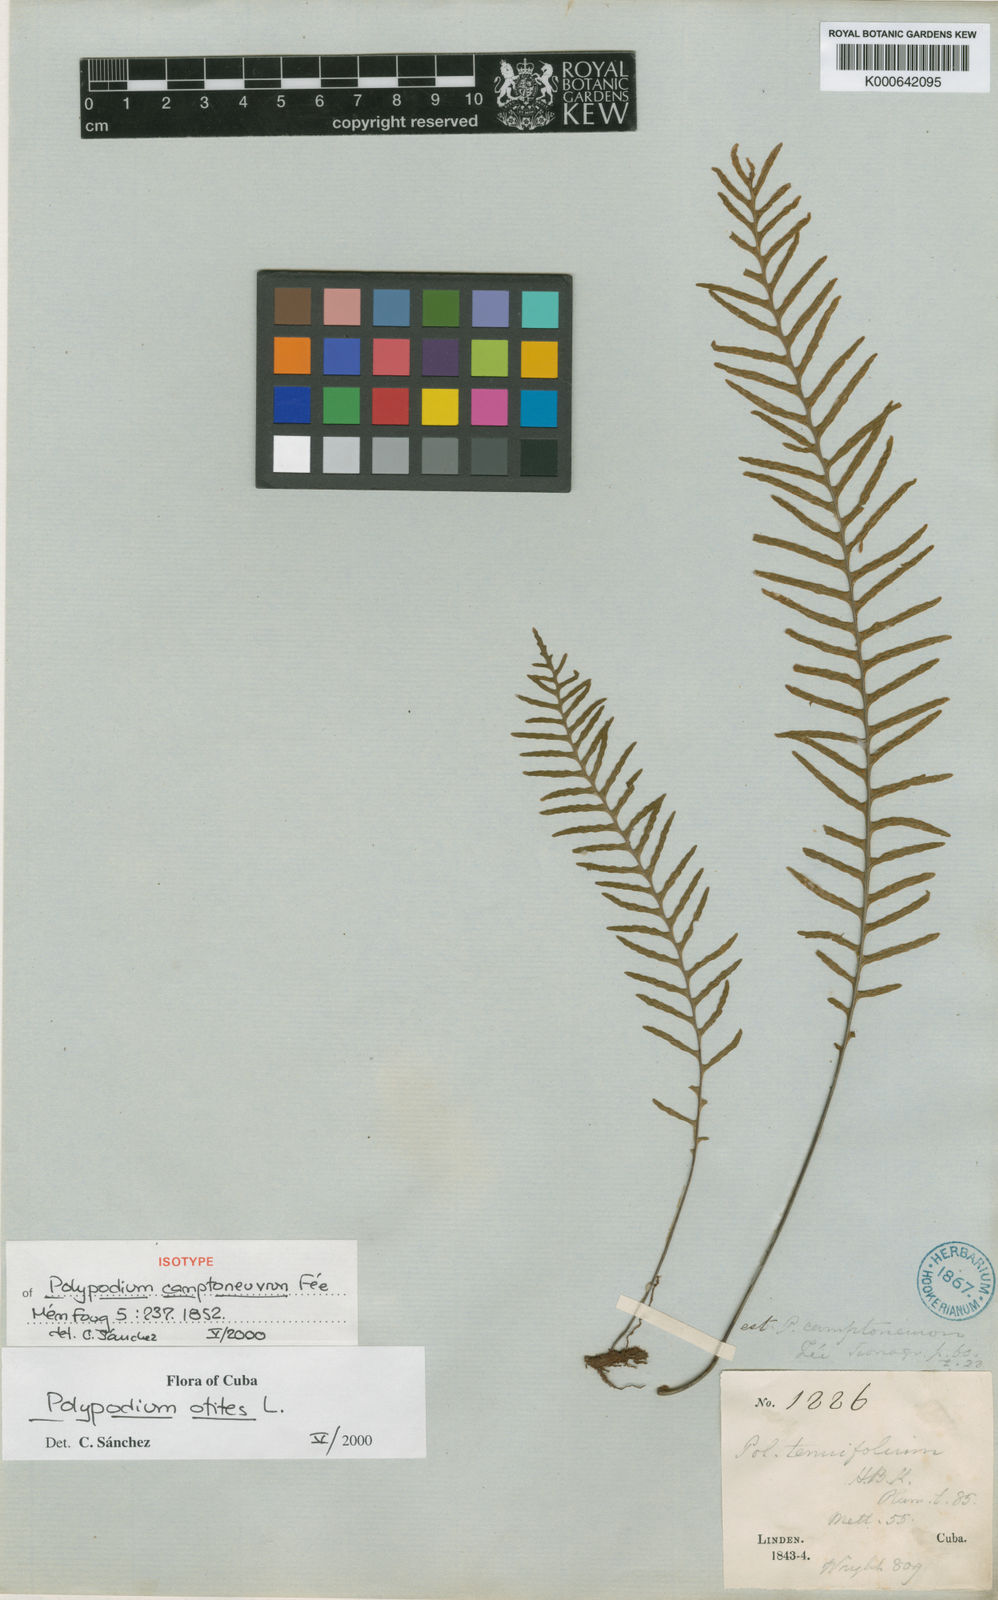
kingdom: Plantae
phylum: Tracheophyta
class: Polypodiopsida
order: Polypodiales
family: Polypodiaceae
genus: Pleopeltis
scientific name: Pleopeltis polypodioides
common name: Resurrection fern
